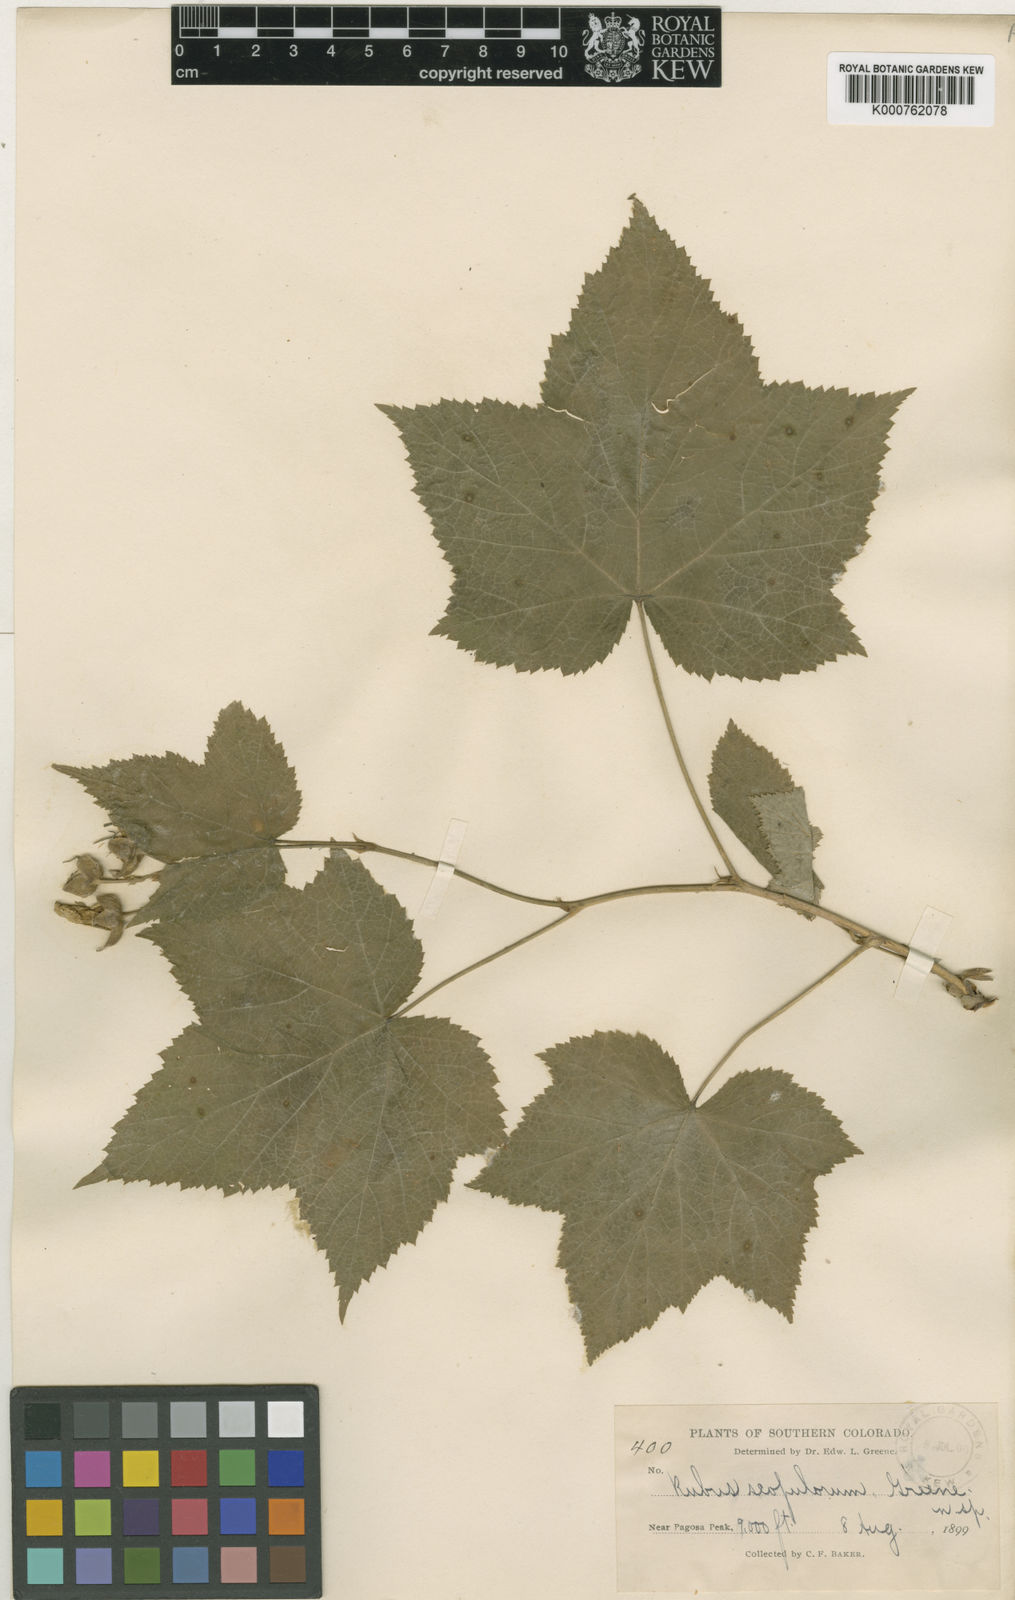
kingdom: Plantae
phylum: Tracheophyta
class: Magnoliopsida
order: Rosales
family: Rosaceae
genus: Rubus
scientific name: Rubus
